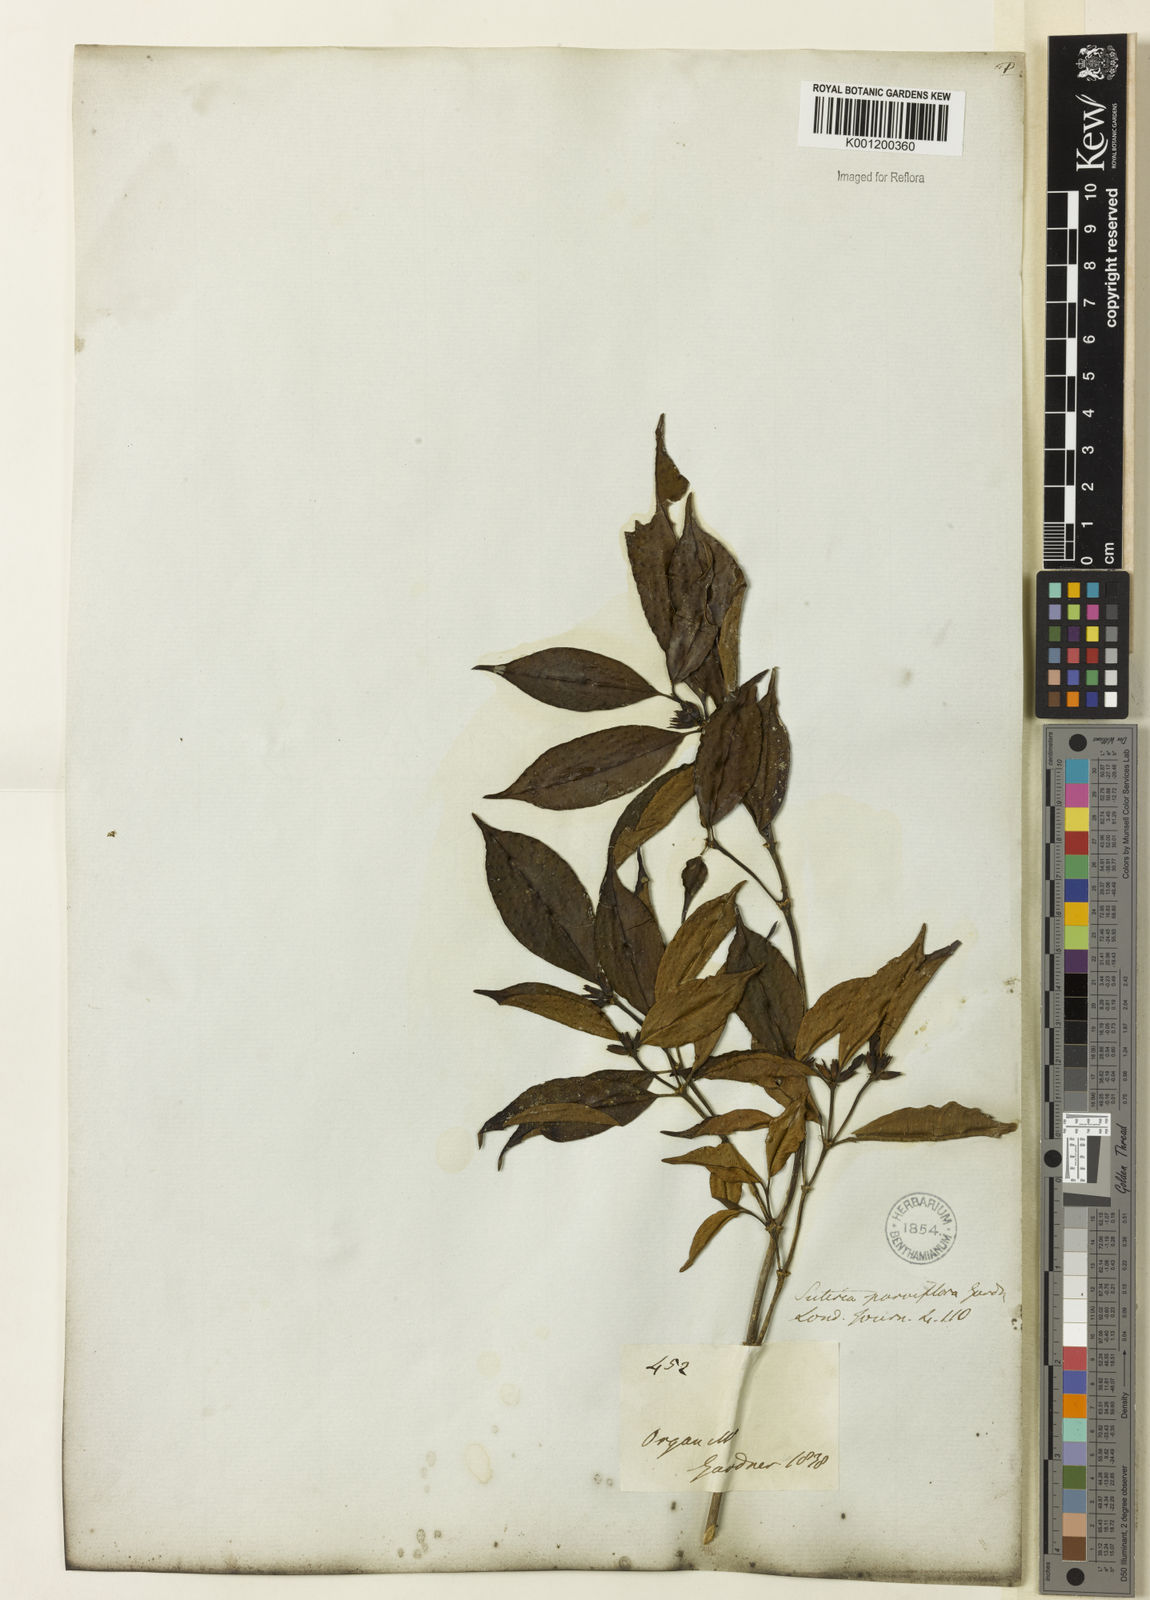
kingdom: Plantae
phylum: Tracheophyta
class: Magnoliopsida
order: Gentianales
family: Rubiaceae
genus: Psychotria
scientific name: Psychotria
